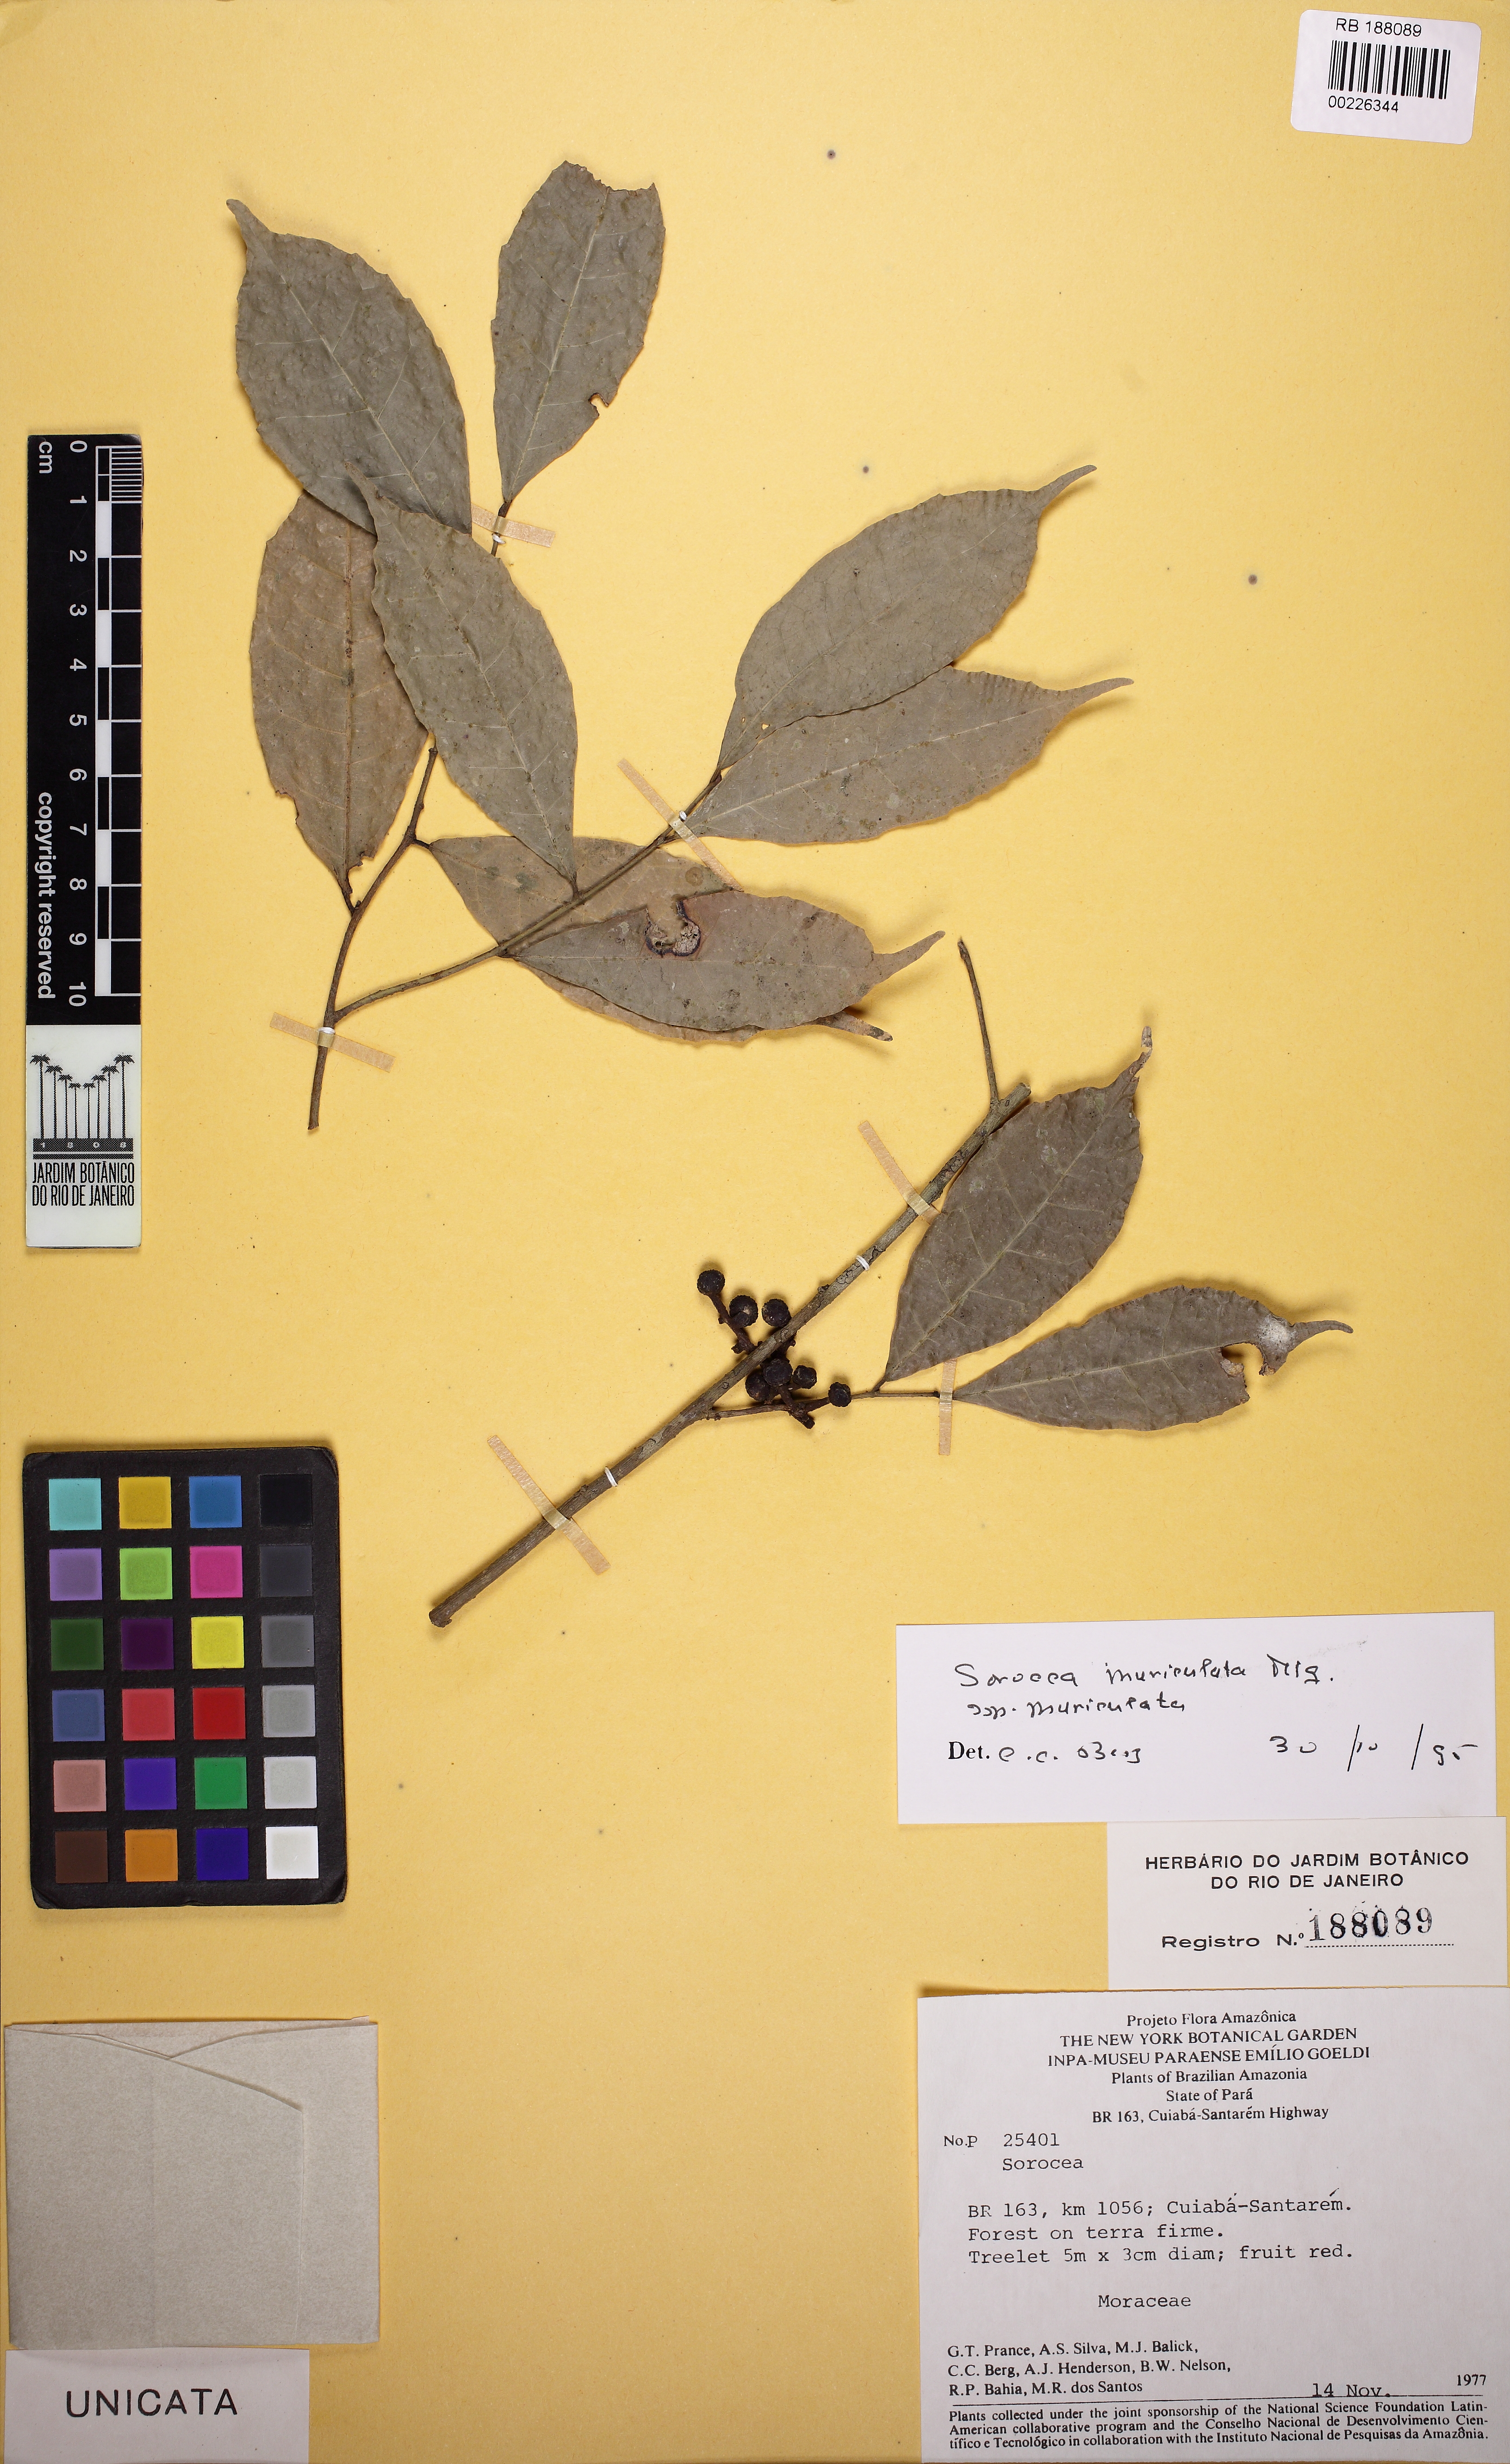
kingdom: Plantae
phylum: Tracheophyta
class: Magnoliopsida
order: Rosales
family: Moraceae
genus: Sorocea
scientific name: Sorocea muriculata
